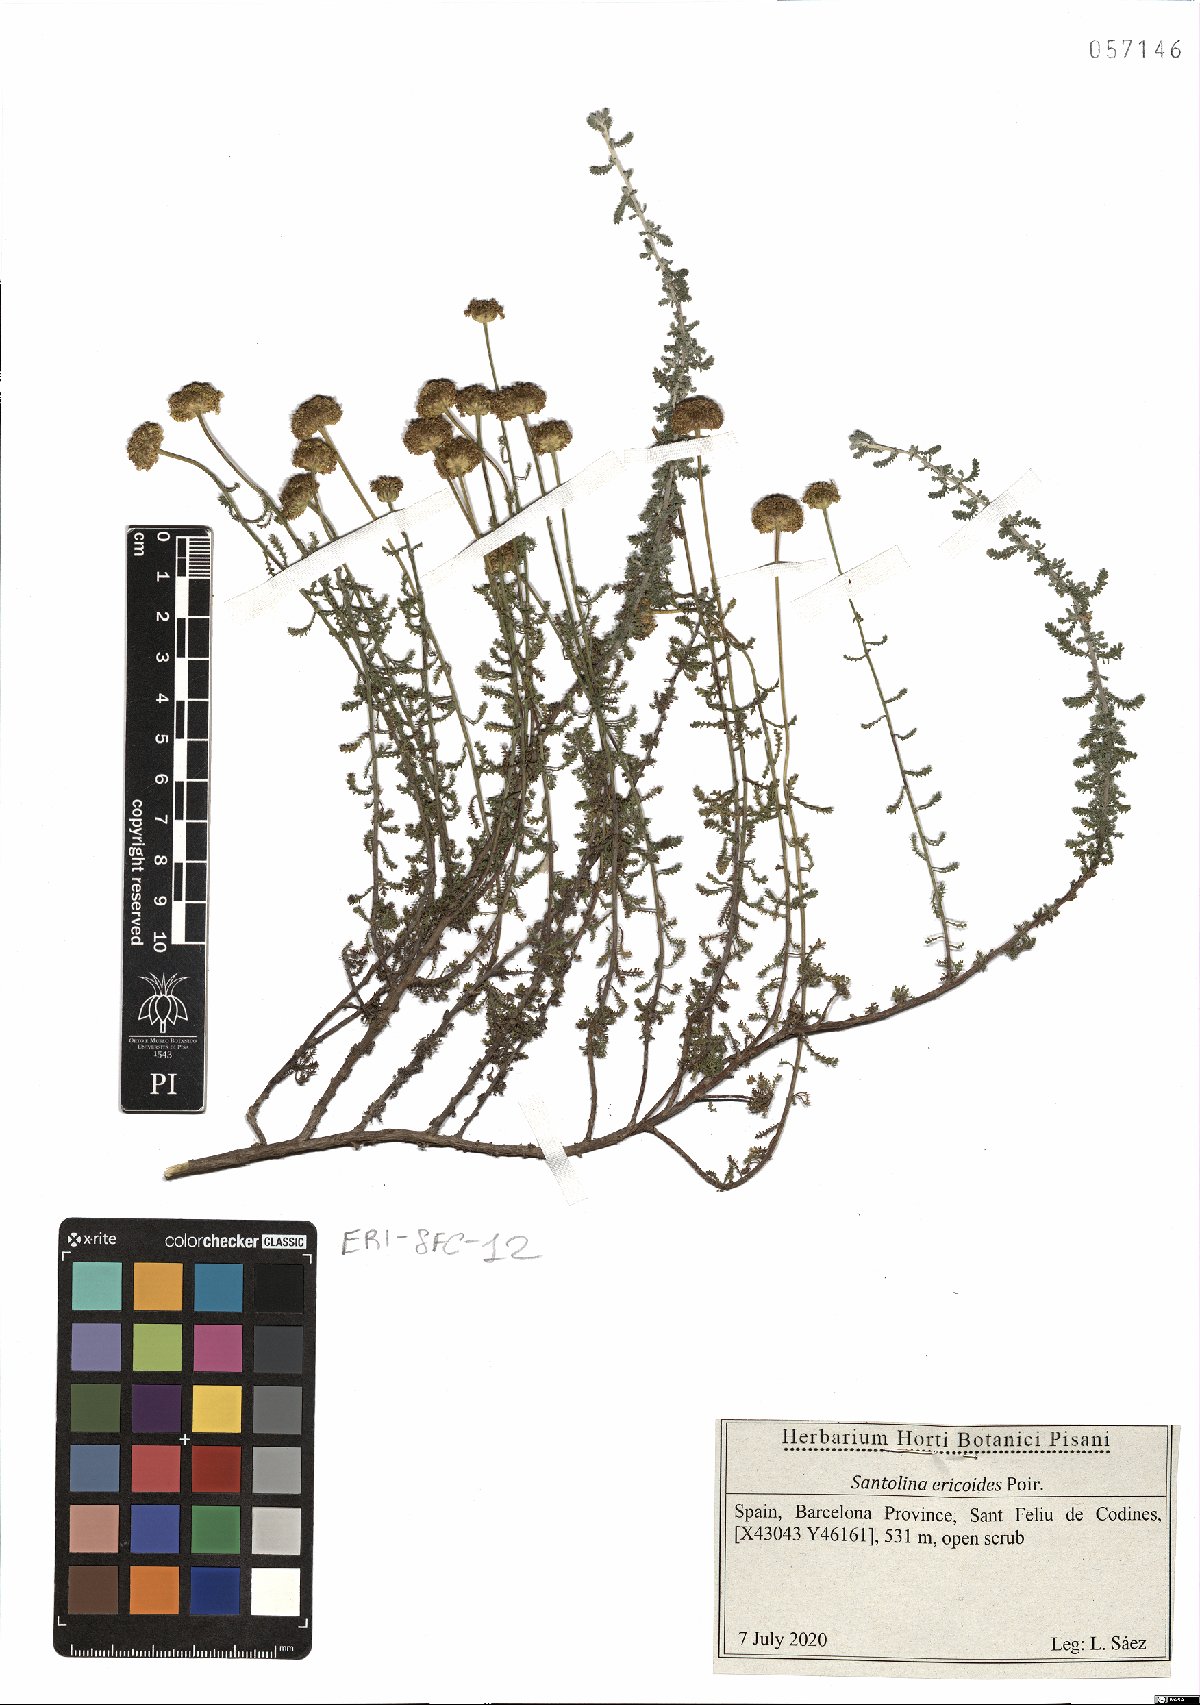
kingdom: Plantae
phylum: Tracheophyta
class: Magnoliopsida
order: Asterales
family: Asteraceae
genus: Santolina
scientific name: Santolina ericoides
